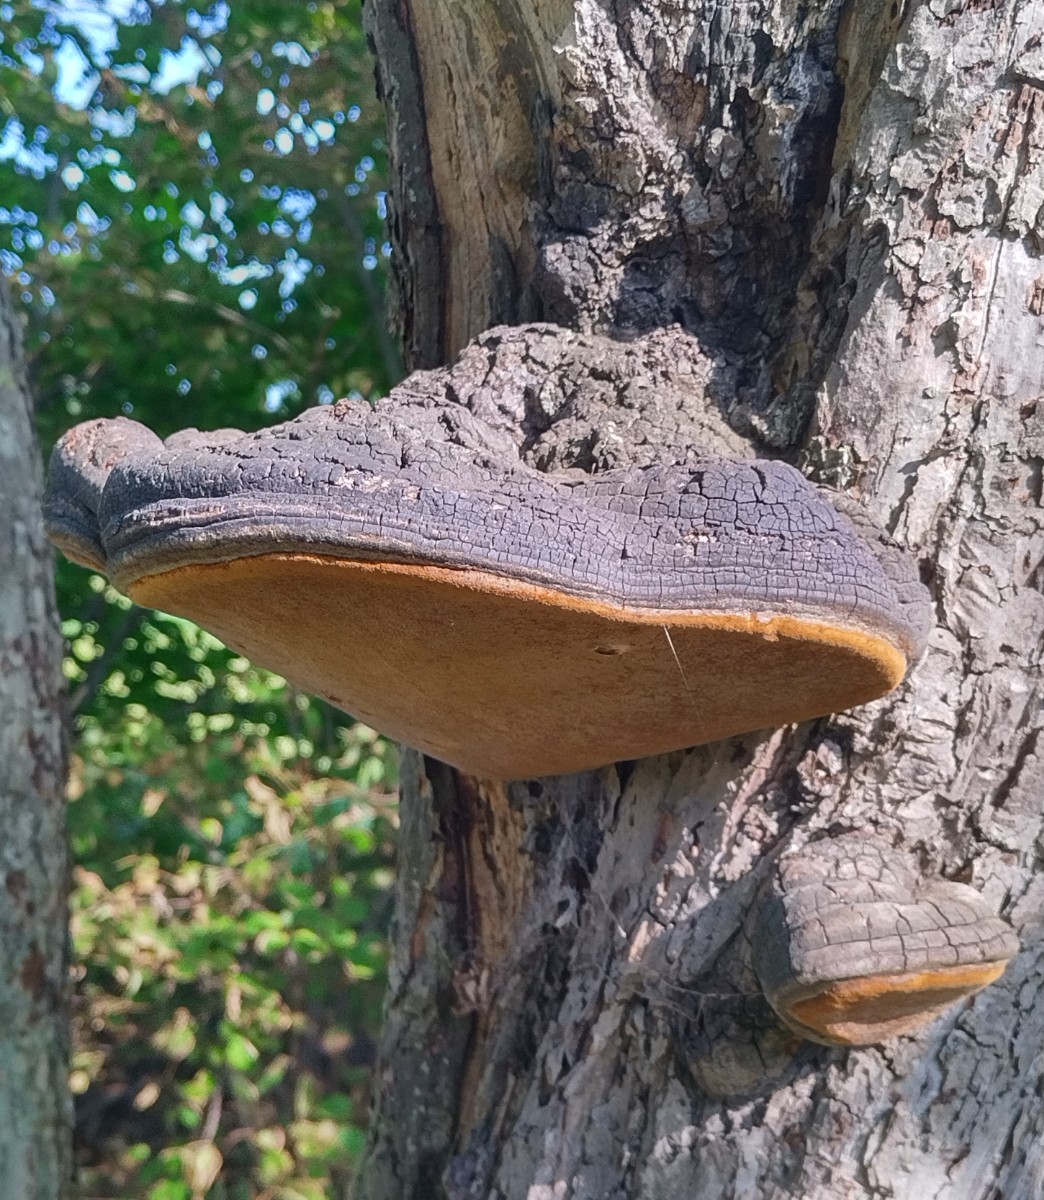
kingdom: Fungi
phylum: Basidiomycota
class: Agaricomycetes
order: Hymenochaetales
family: Hymenochaetaceae
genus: Phellinus
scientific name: Phellinus igniarius
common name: elle-ildporesvamp
